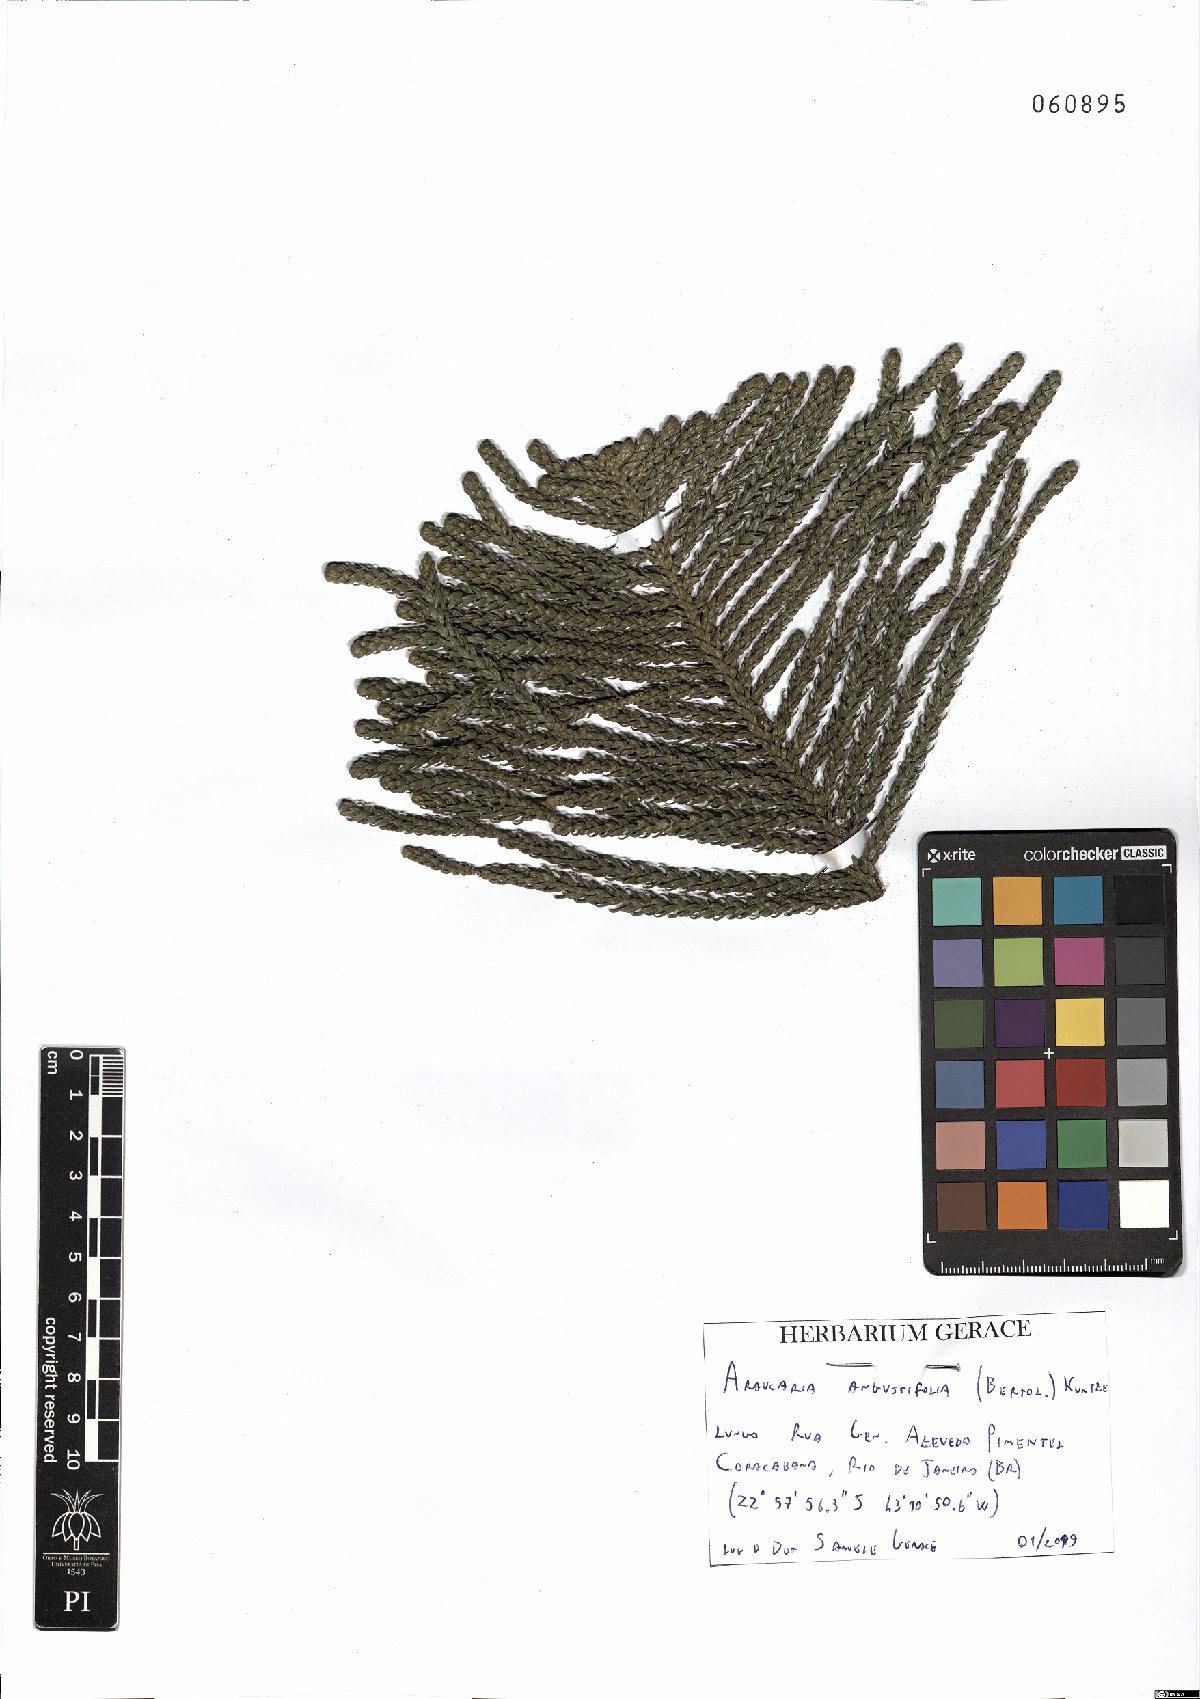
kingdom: Plantae
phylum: Tracheophyta
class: Pinopsida
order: Pinales
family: Araucariaceae
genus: Araucaria
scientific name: Araucaria angustifolia
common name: Candelabra tree
